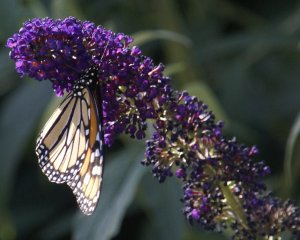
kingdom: Animalia
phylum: Arthropoda
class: Insecta
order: Lepidoptera
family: Nymphalidae
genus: Danaus
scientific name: Danaus plexippus
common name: Monarch
